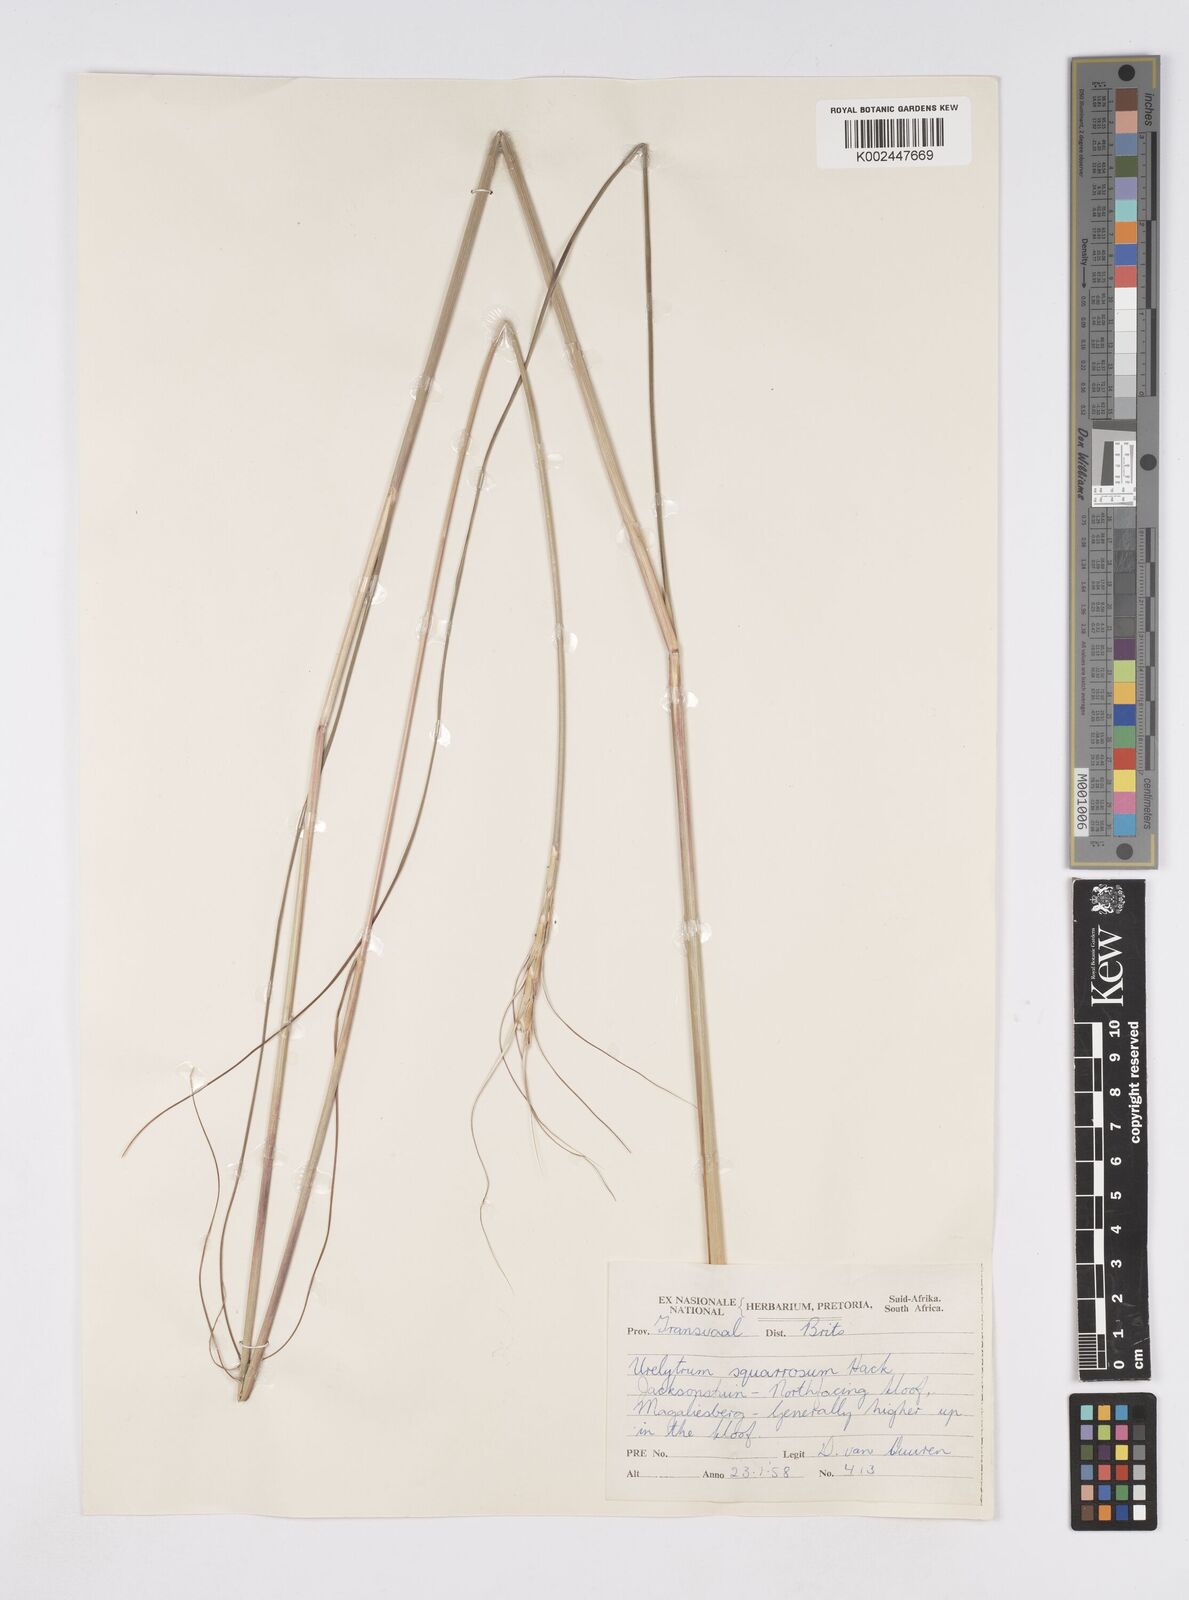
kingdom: Plantae
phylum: Tracheophyta
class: Liliopsida
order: Poales
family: Poaceae
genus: Urelytrum
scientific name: Urelytrum agropyroides
